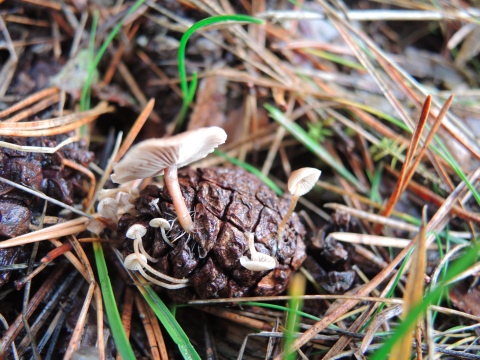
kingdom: Fungi
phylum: Basidiomycota
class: Agaricomycetes
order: Agaricales
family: Marasmiaceae
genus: Baeospora
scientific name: Baeospora myosura
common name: koglebruskhat
